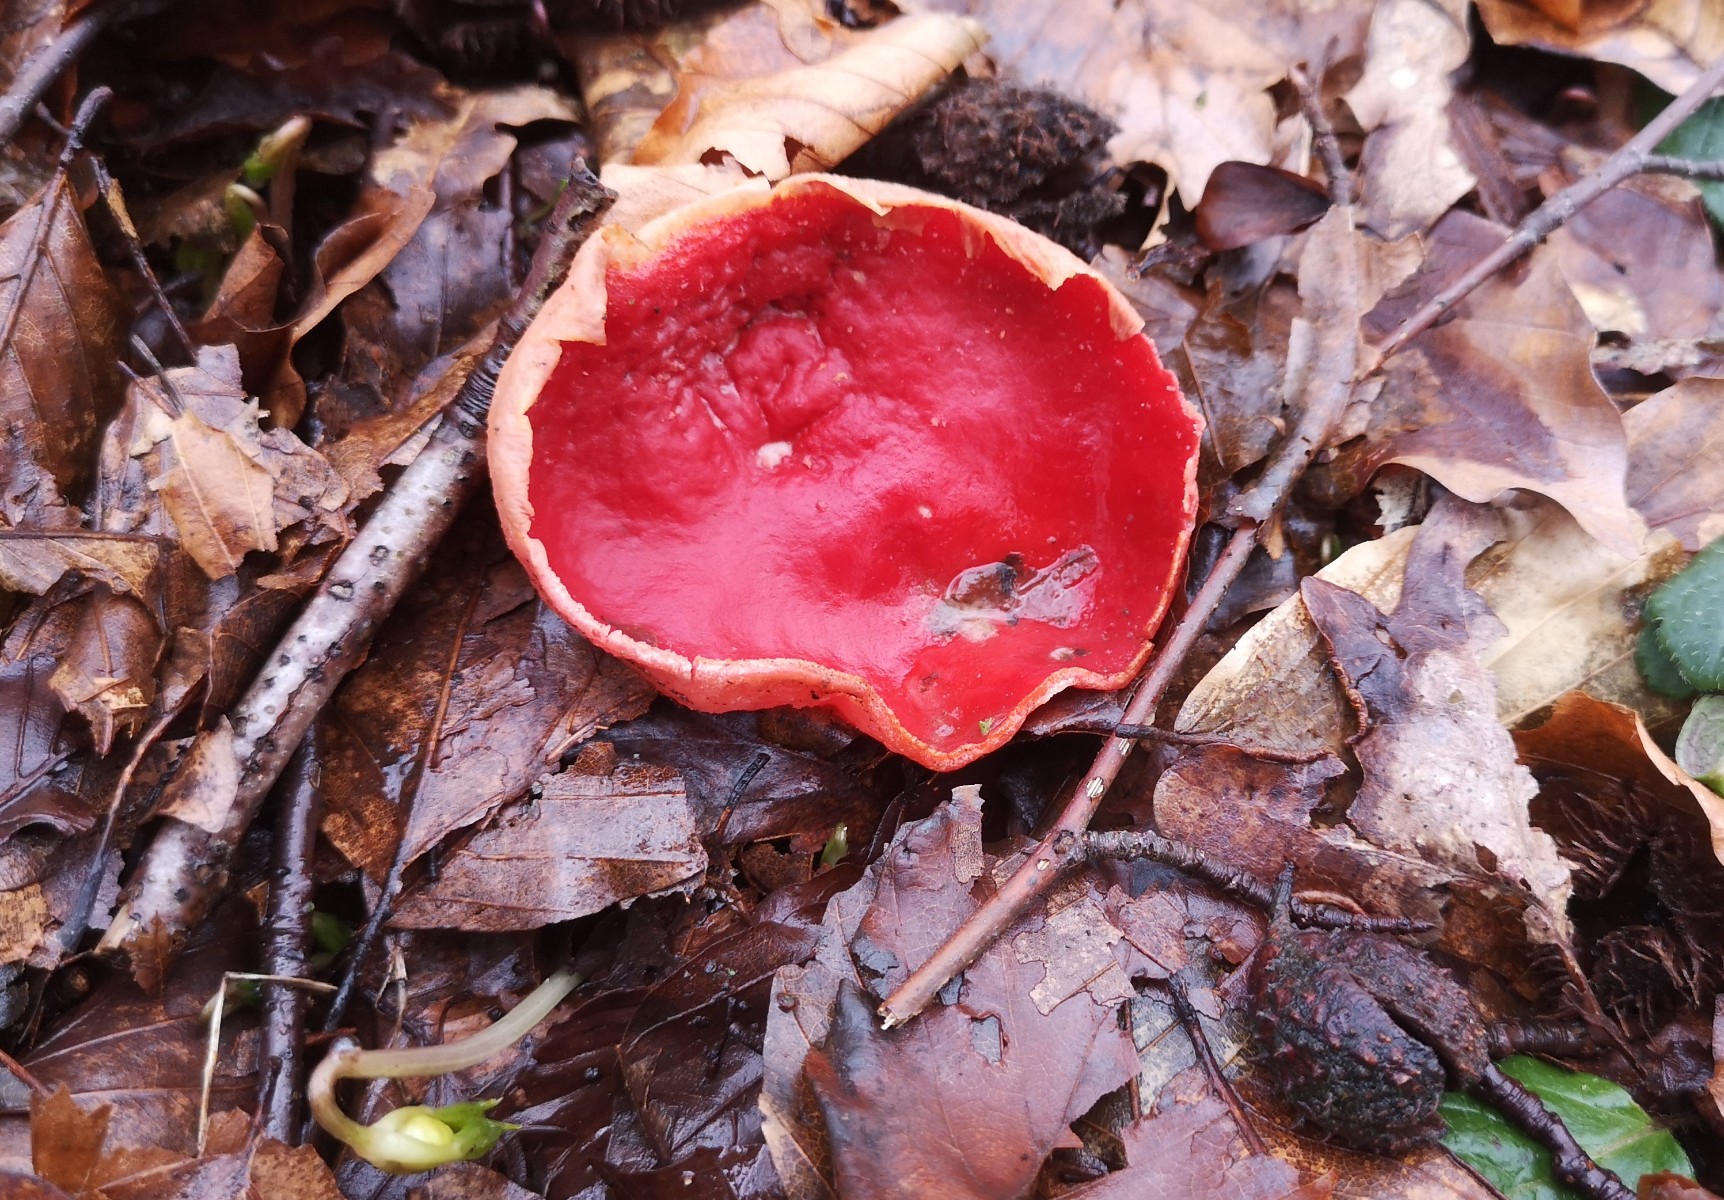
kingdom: Fungi
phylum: Ascomycota
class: Pezizomycetes
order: Pezizales
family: Sarcoscyphaceae
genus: Sarcoscypha
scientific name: Sarcoscypha coccinea
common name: skarlagen-pragtbæger
